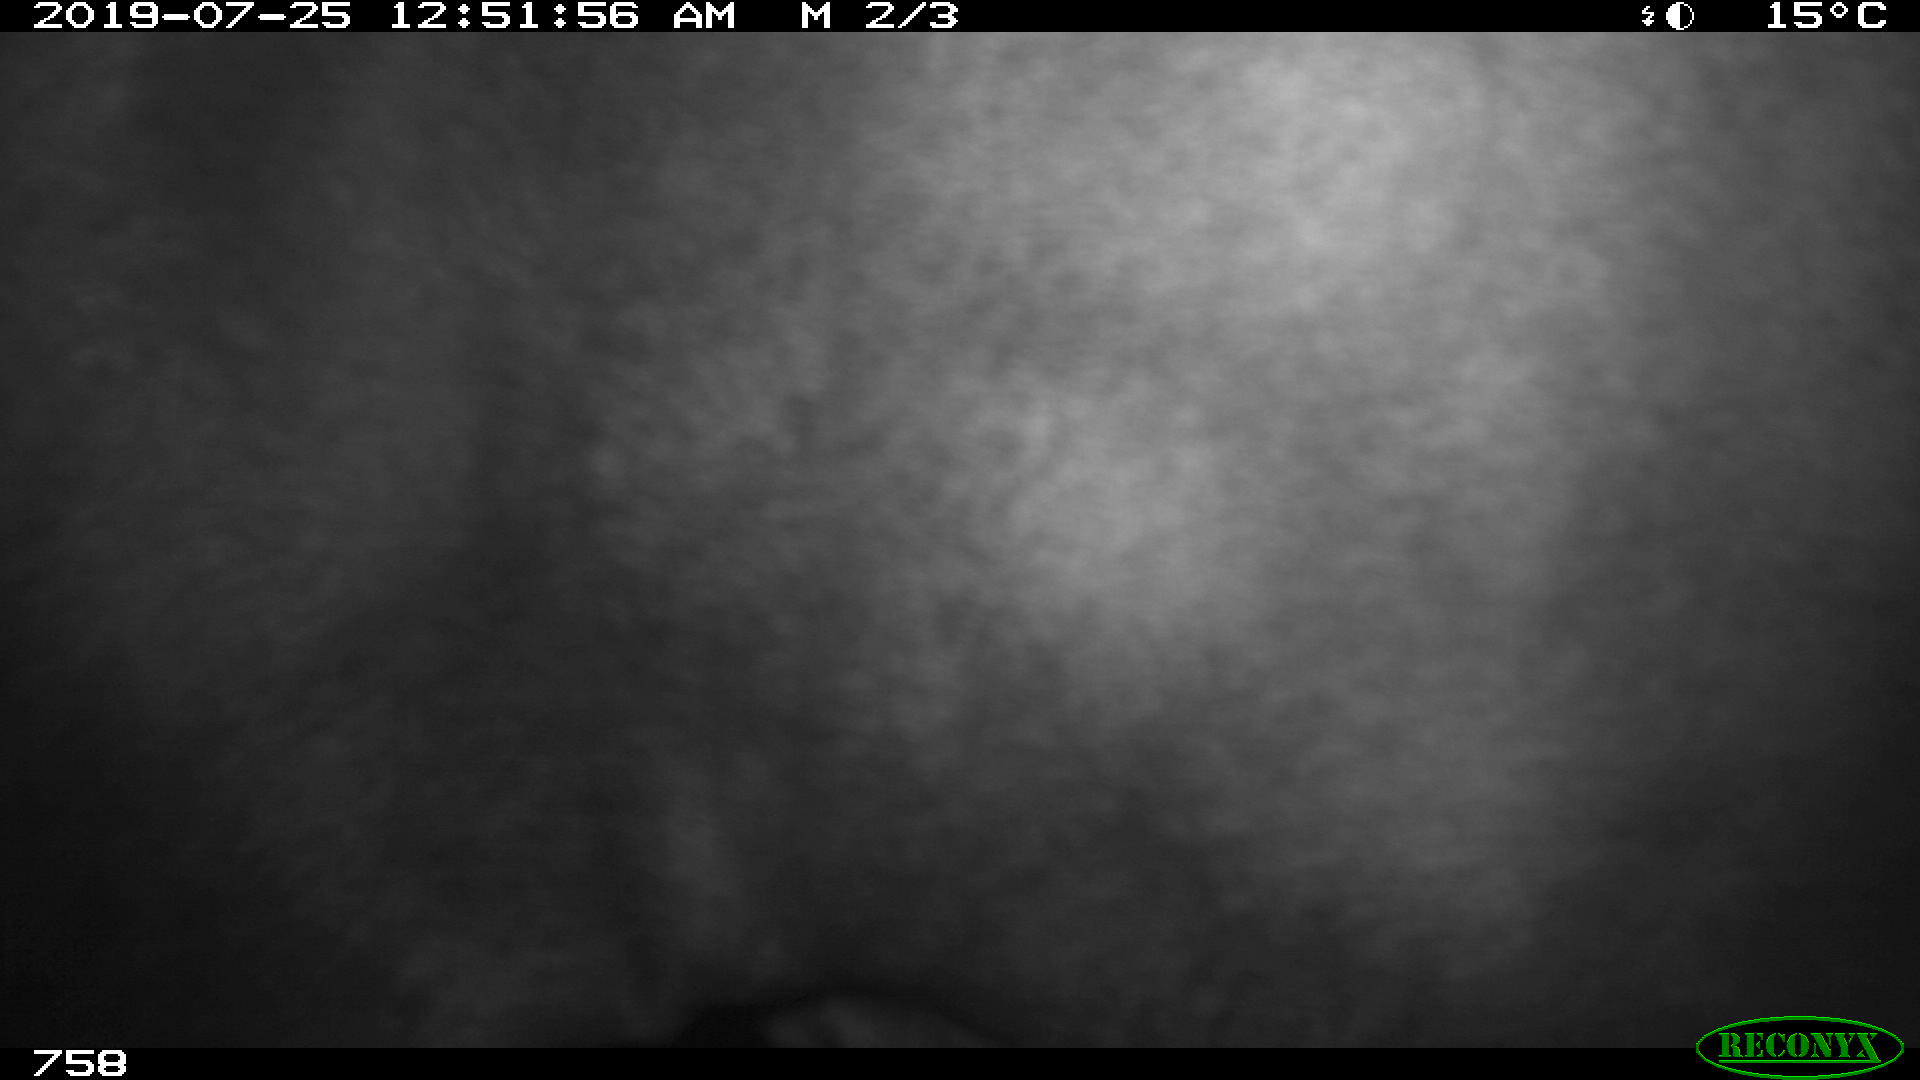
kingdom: Animalia
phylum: Chordata
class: Mammalia
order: Perissodactyla
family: Equidae
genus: Equus
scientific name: Equus caballus
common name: Horse
